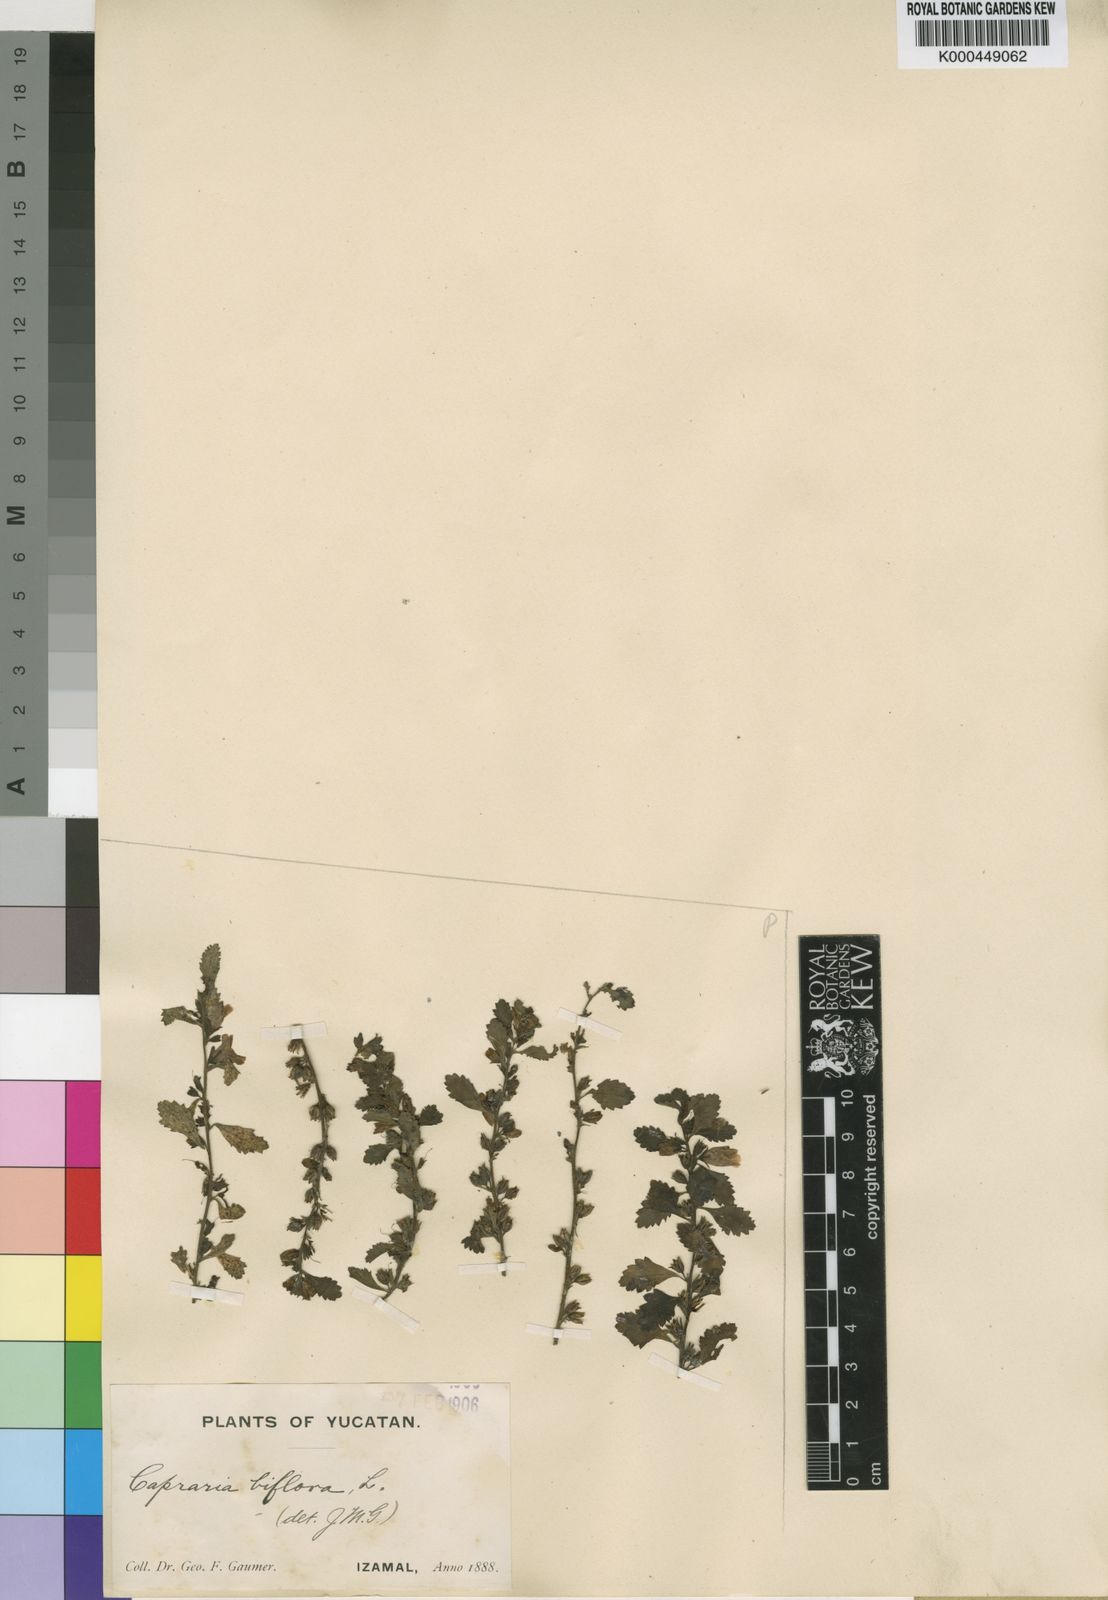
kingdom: Plantae
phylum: Tracheophyta
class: Magnoliopsida
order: Lamiales
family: Scrophulariaceae
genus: Capraria
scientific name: Capraria biflora
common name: Goatweed
